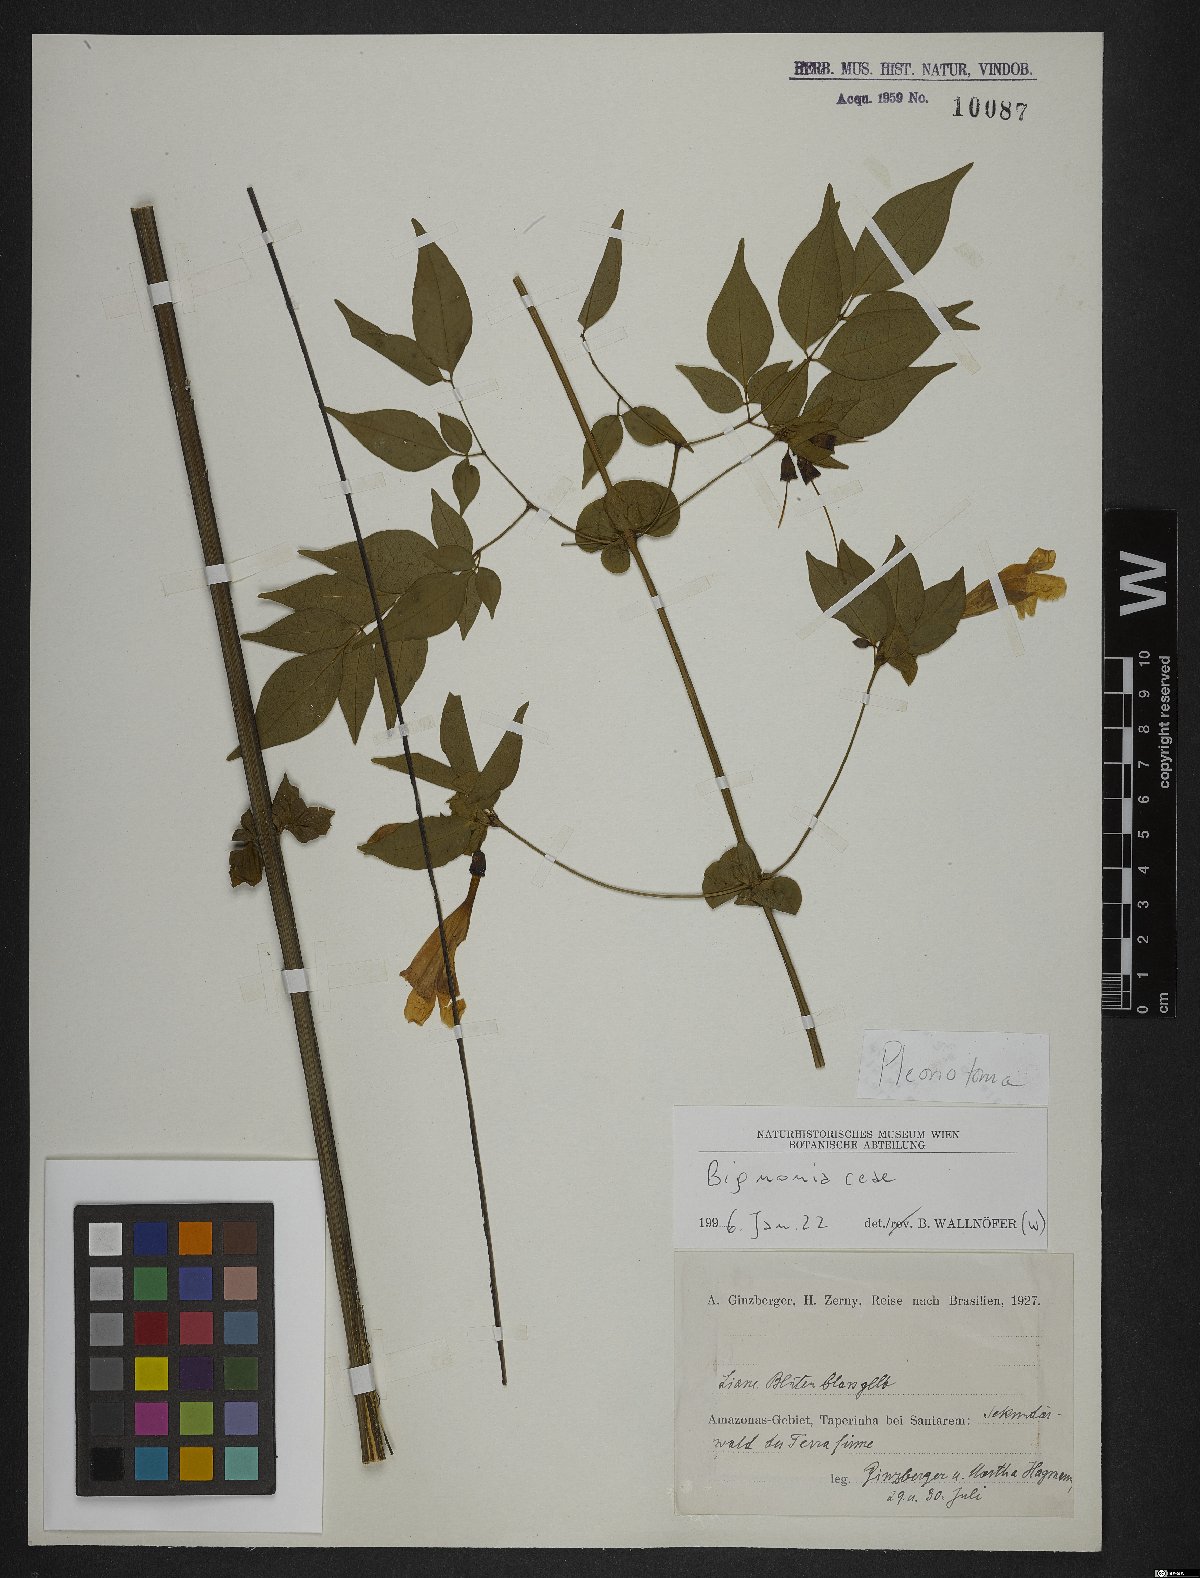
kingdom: Plantae
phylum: Tracheophyta
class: Magnoliopsida
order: Lamiales
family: Bignoniaceae
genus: Pleonotoma
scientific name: Pleonotoma
